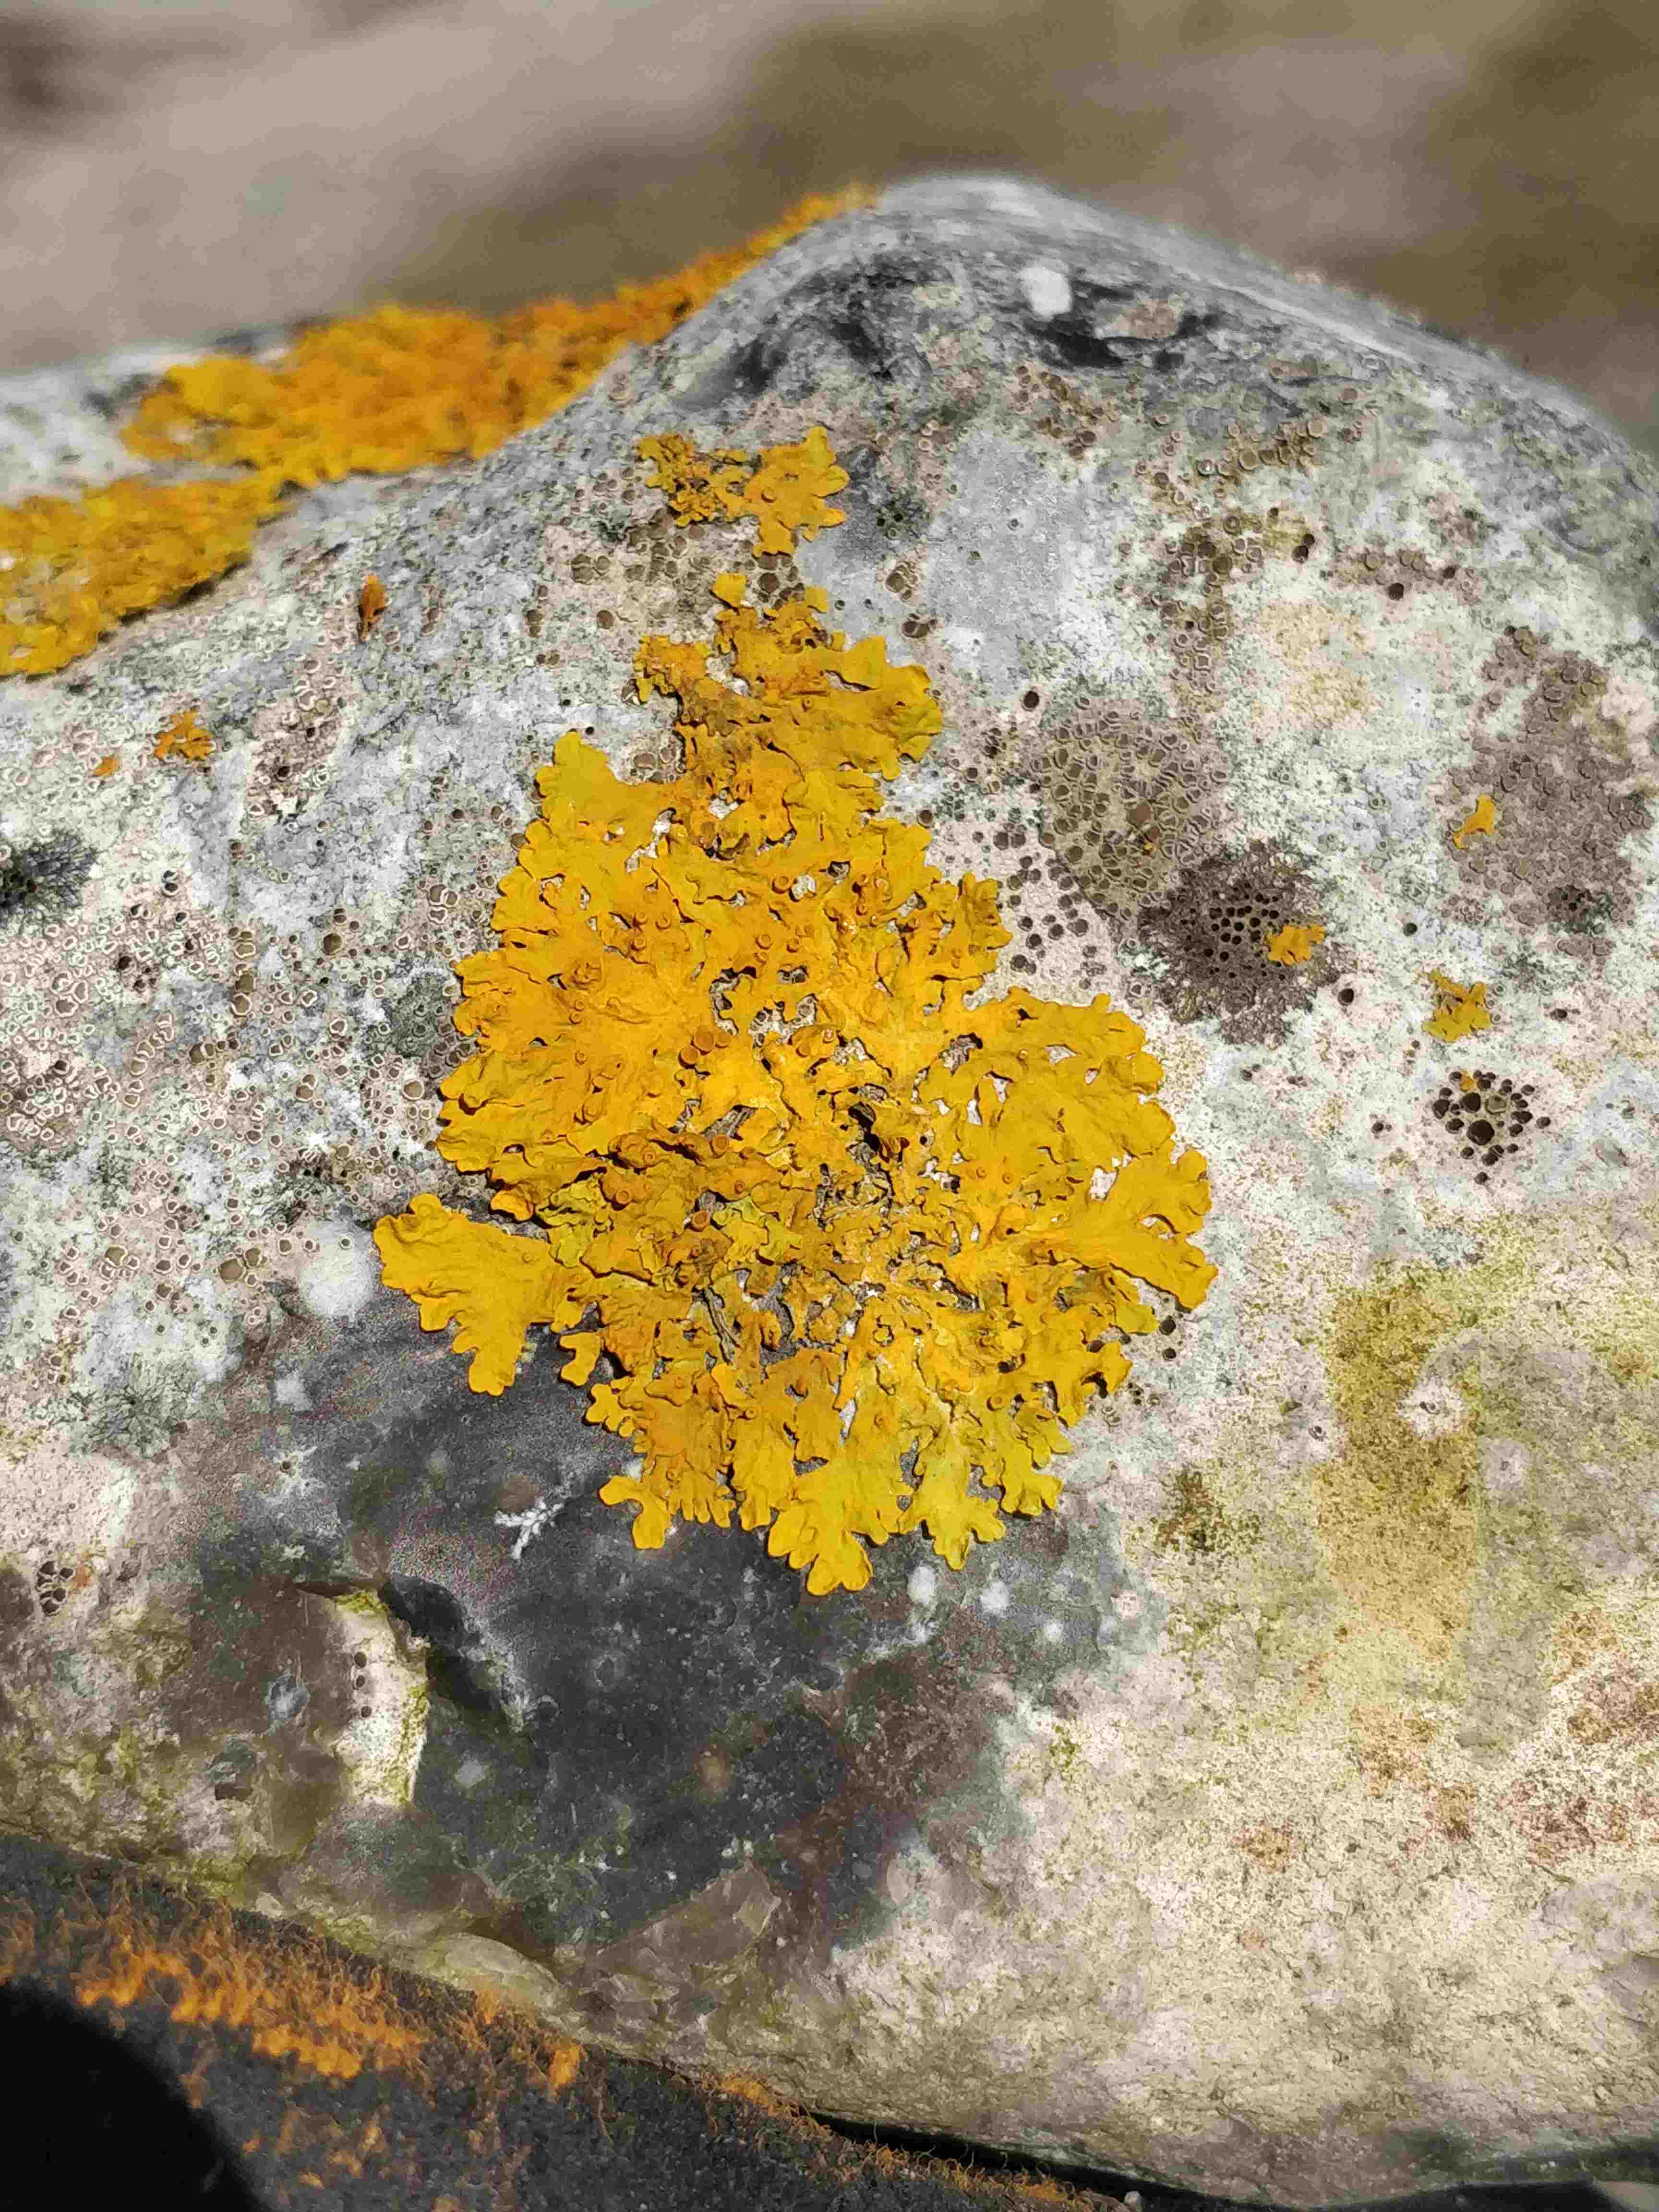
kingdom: Fungi
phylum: Ascomycota
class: Lecanoromycetes
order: Teloschistales
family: Teloschistaceae
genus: Xanthoria
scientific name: Xanthoria parietina
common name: almindelig væggelav
